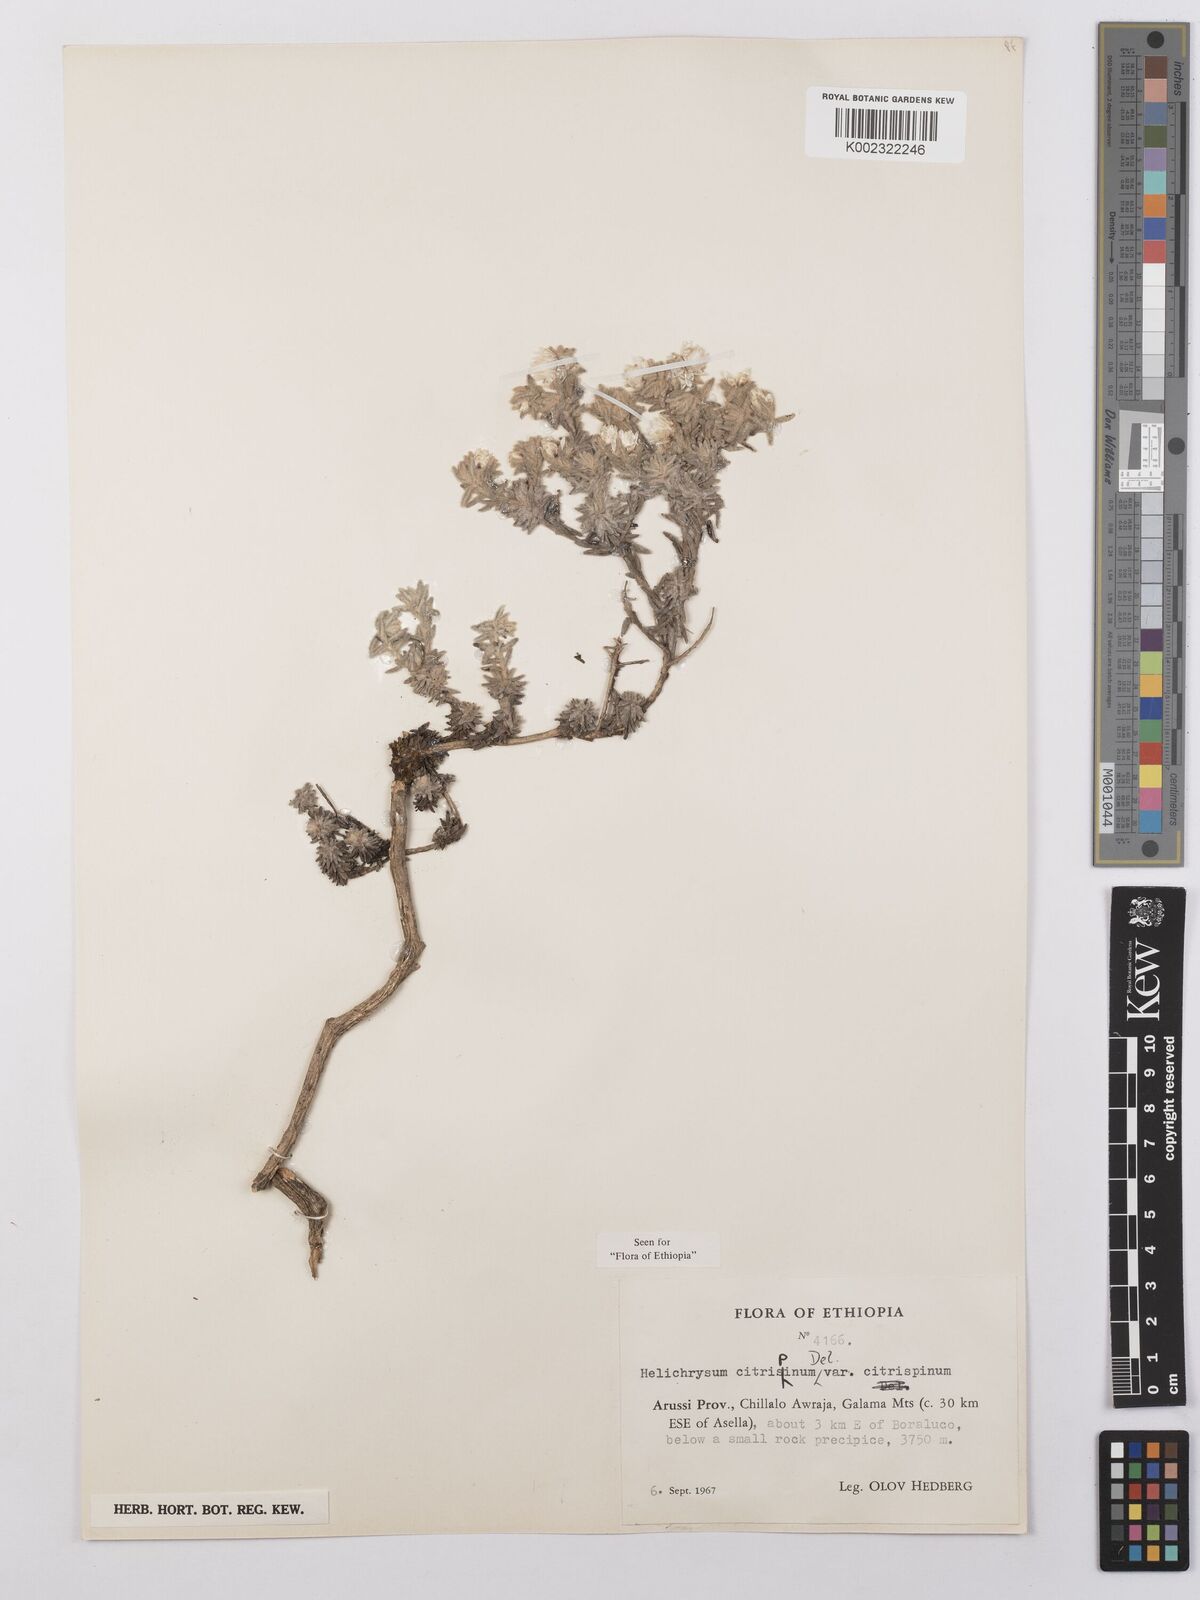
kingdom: Plantae
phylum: Tracheophyta
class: Magnoliopsida
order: Asterales
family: Asteraceae
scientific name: Asteraceae
